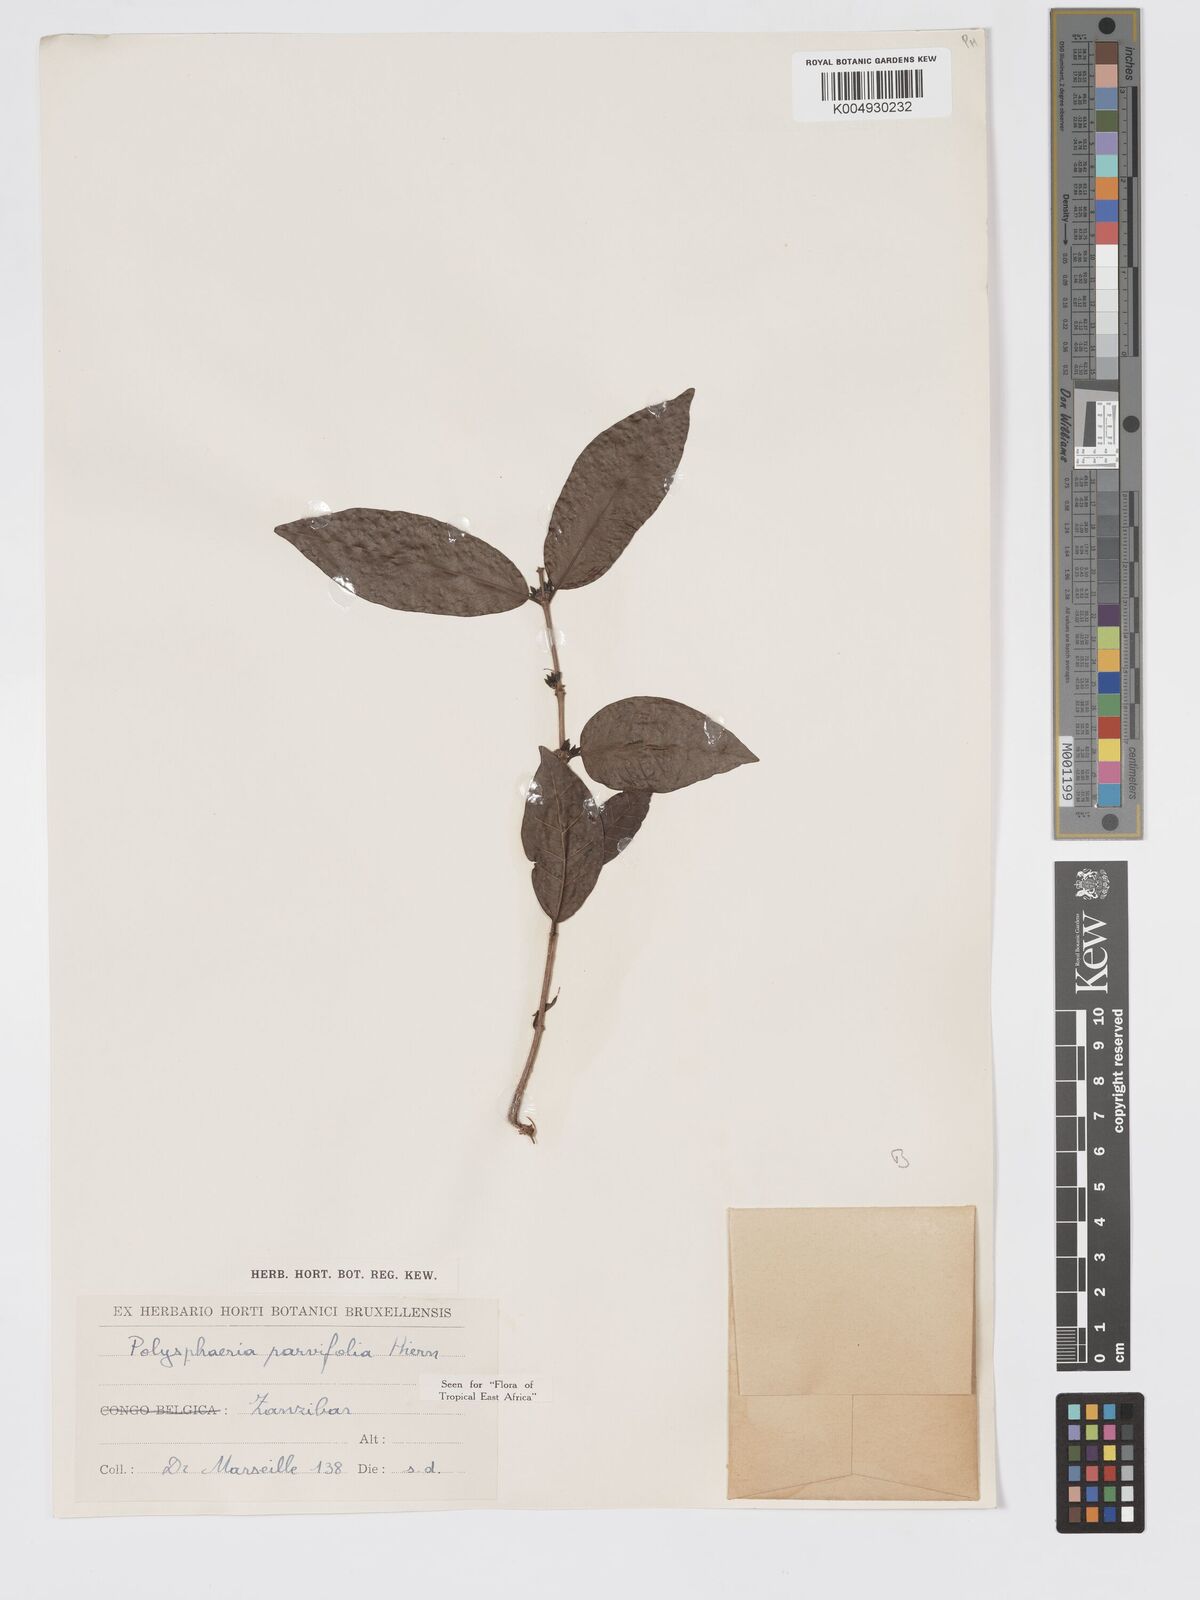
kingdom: Plantae
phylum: Tracheophyta
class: Magnoliopsida
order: Gentianales
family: Rubiaceae
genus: Polysphaeria
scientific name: Polysphaeria parvifolia
